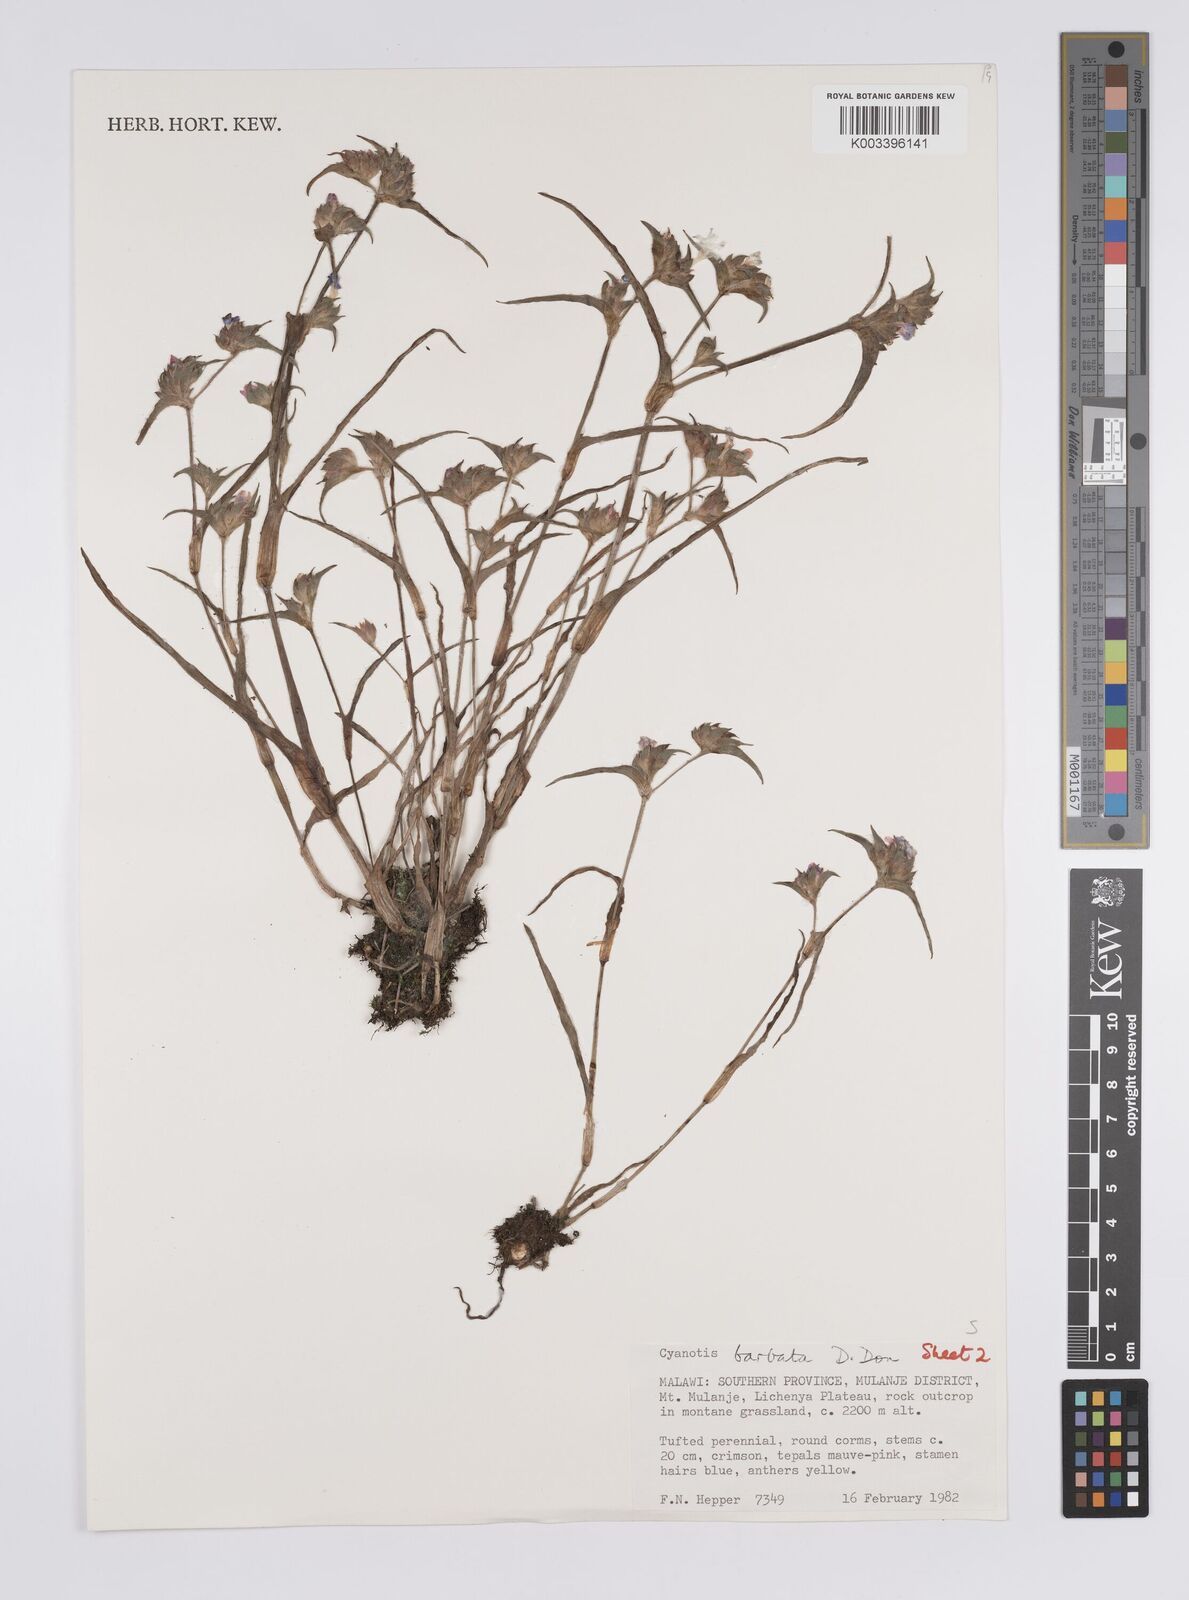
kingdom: Plantae
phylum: Tracheophyta
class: Liliopsida
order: Commelinales
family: Commelinaceae
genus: Cyanotis
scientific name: Cyanotis vaga
